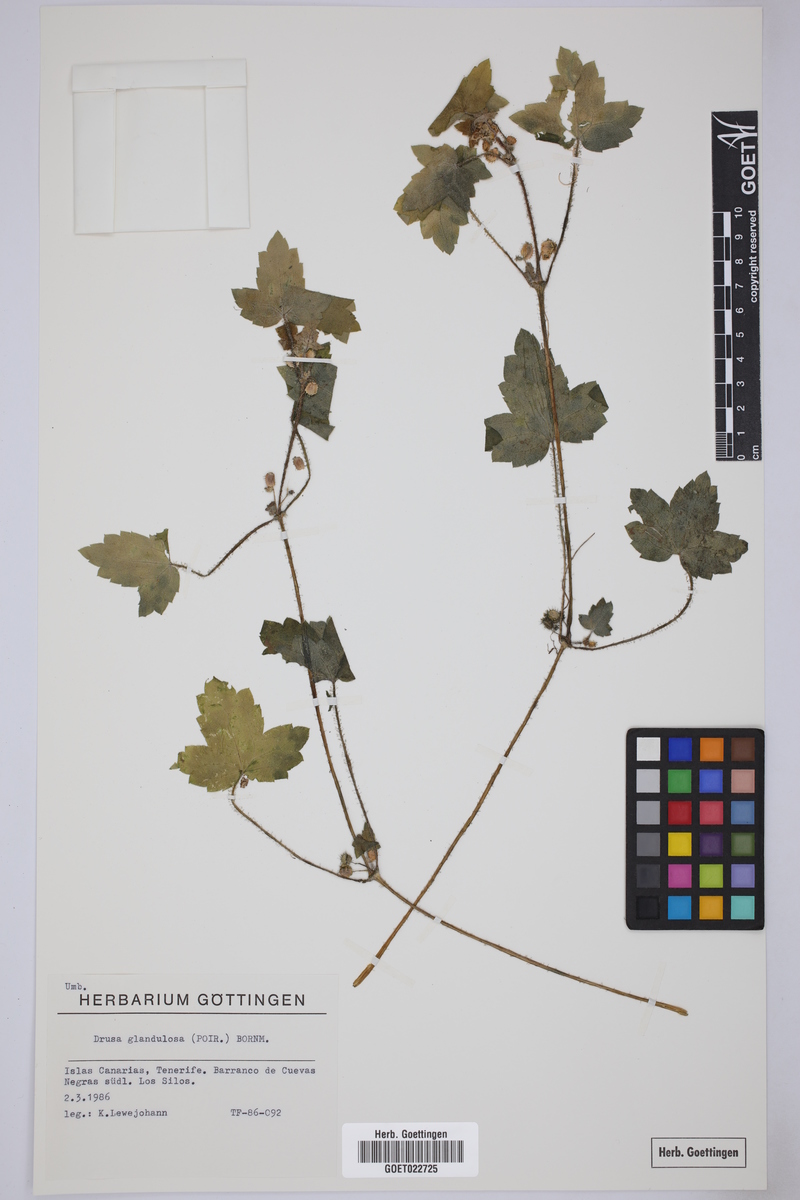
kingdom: Plantae
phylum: Tracheophyta
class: Magnoliopsida
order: Apiales
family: Apiaceae
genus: Drusa
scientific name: Drusa glandulosa
